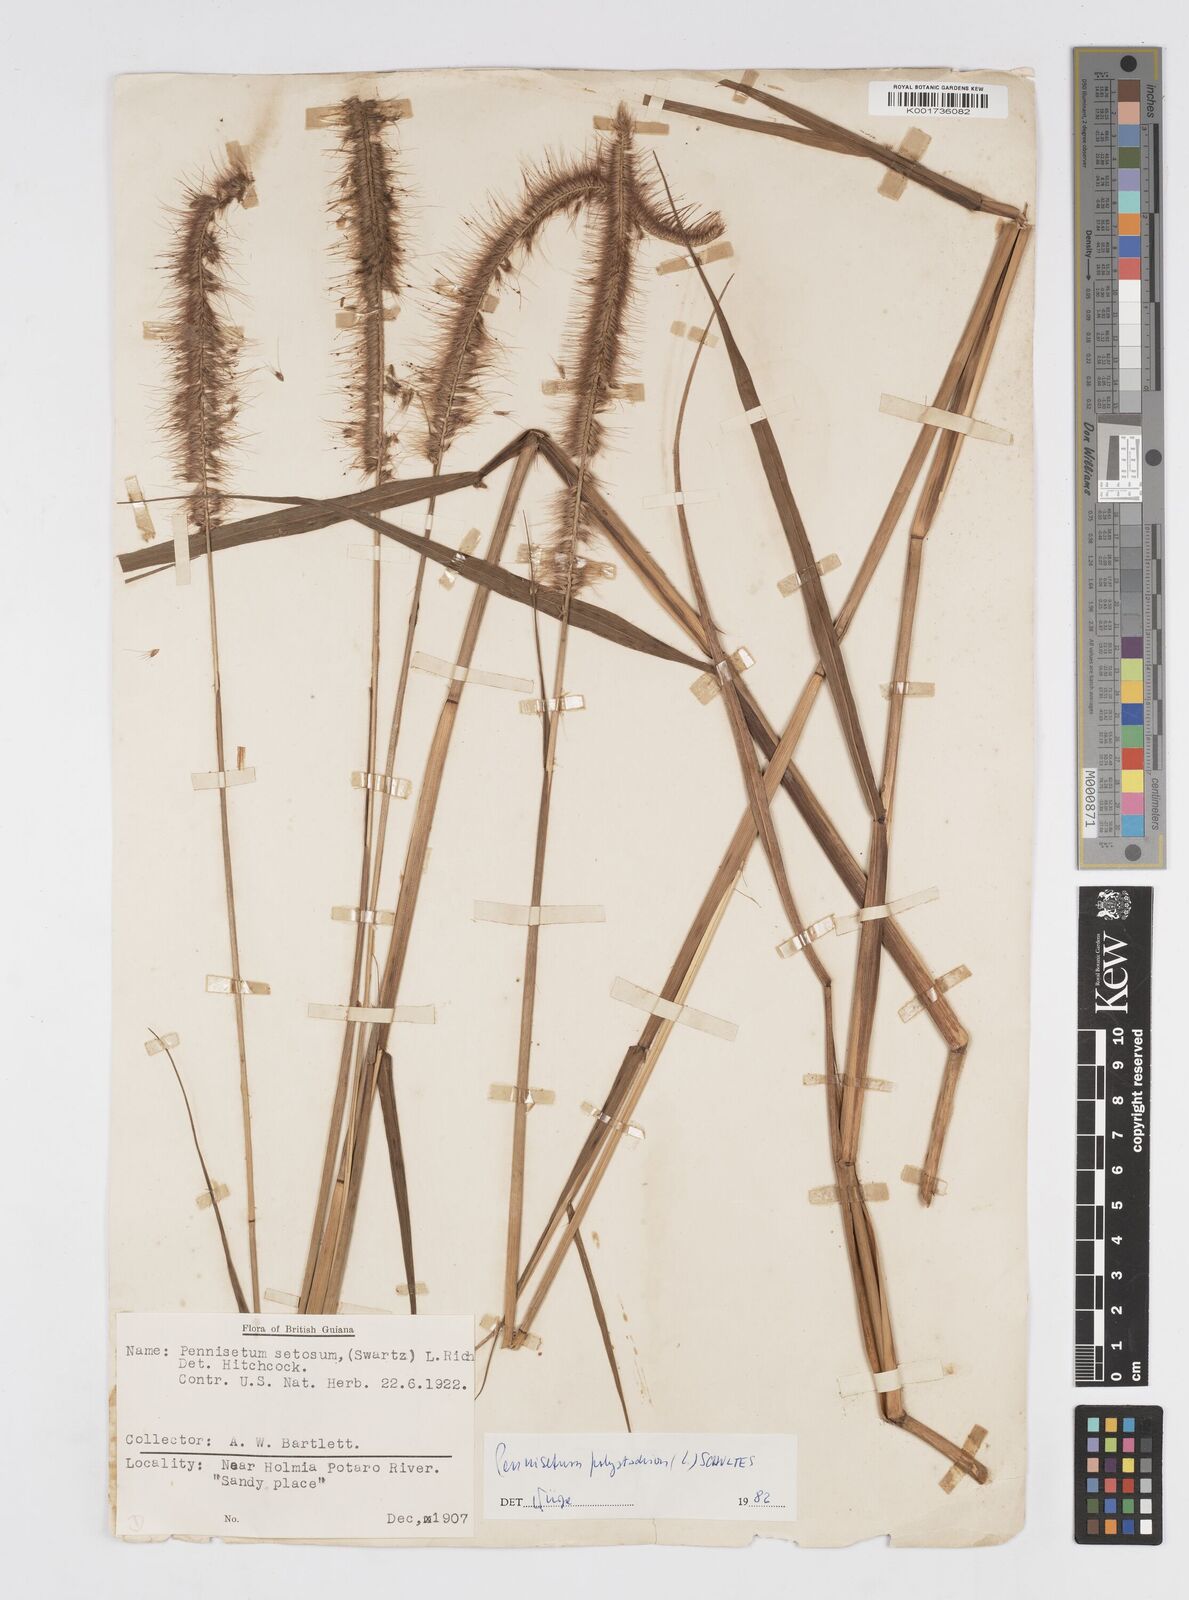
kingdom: Plantae
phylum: Tracheophyta
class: Liliopsida
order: Poales
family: Poaceae
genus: Cenchrus
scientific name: Cenchrus setosus
